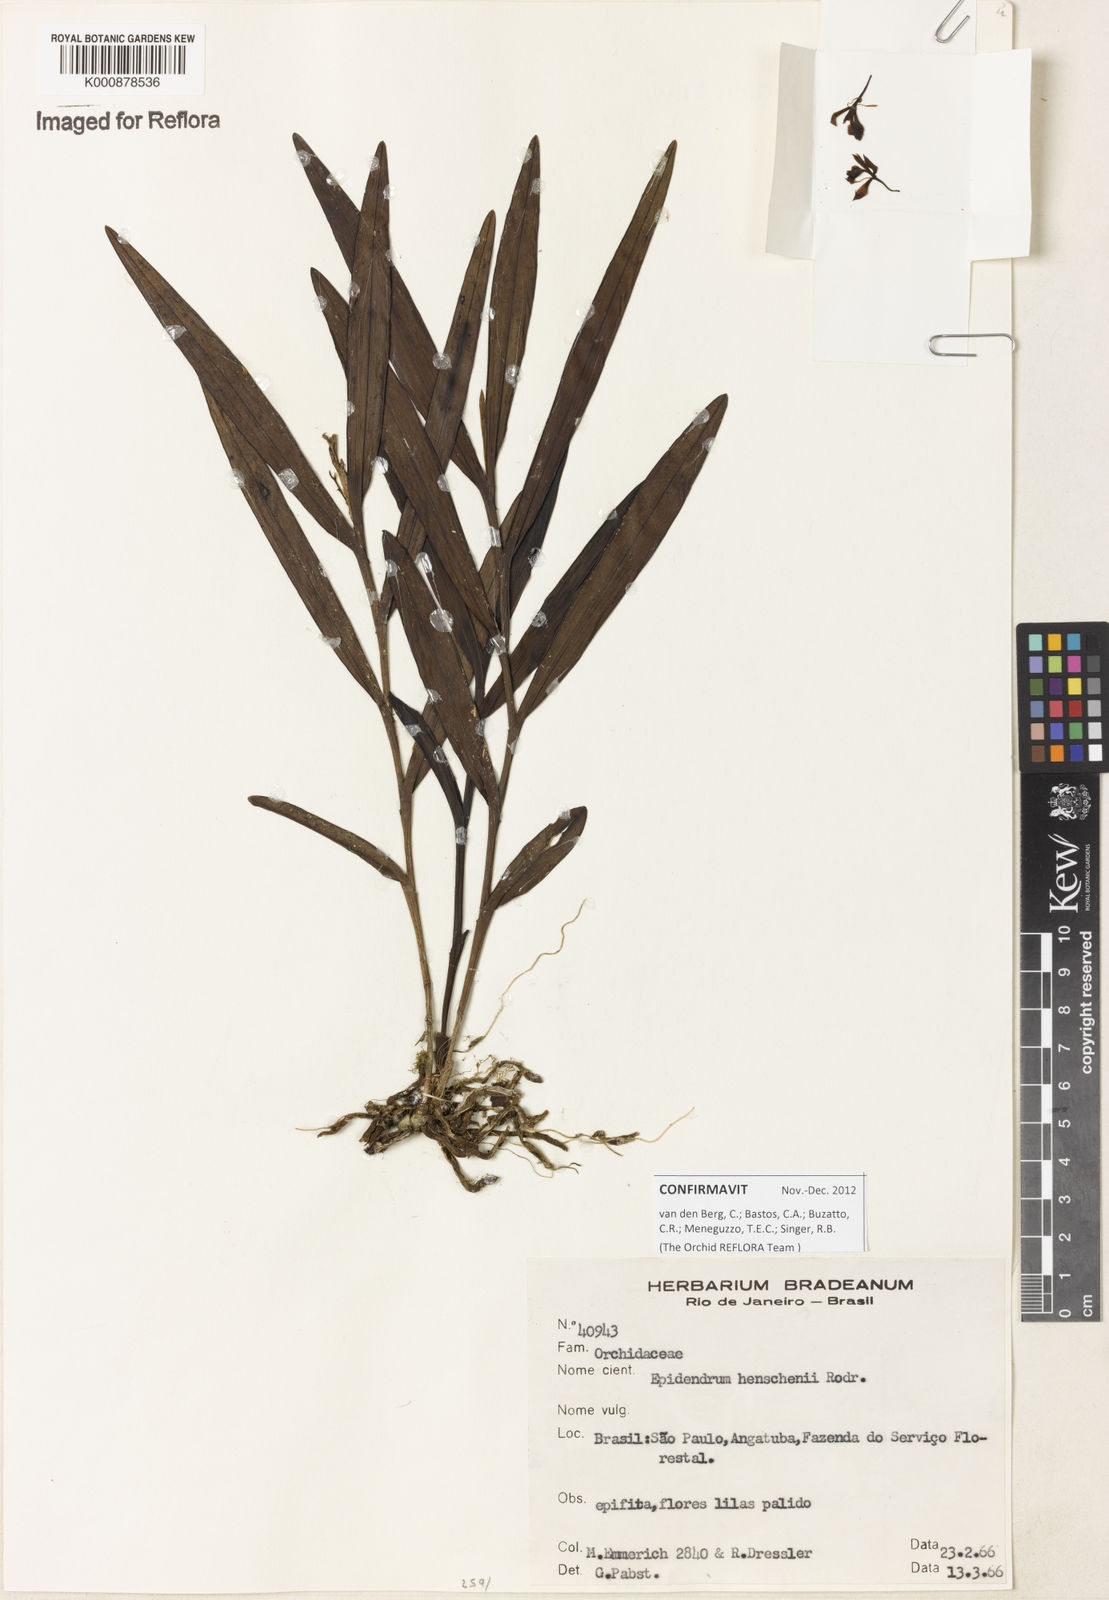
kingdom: Plantae
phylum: Tracheophyta
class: Liliopsida
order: Asparagales
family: Orchidaceae
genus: Epidendrum
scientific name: Epidendrum henschenii
